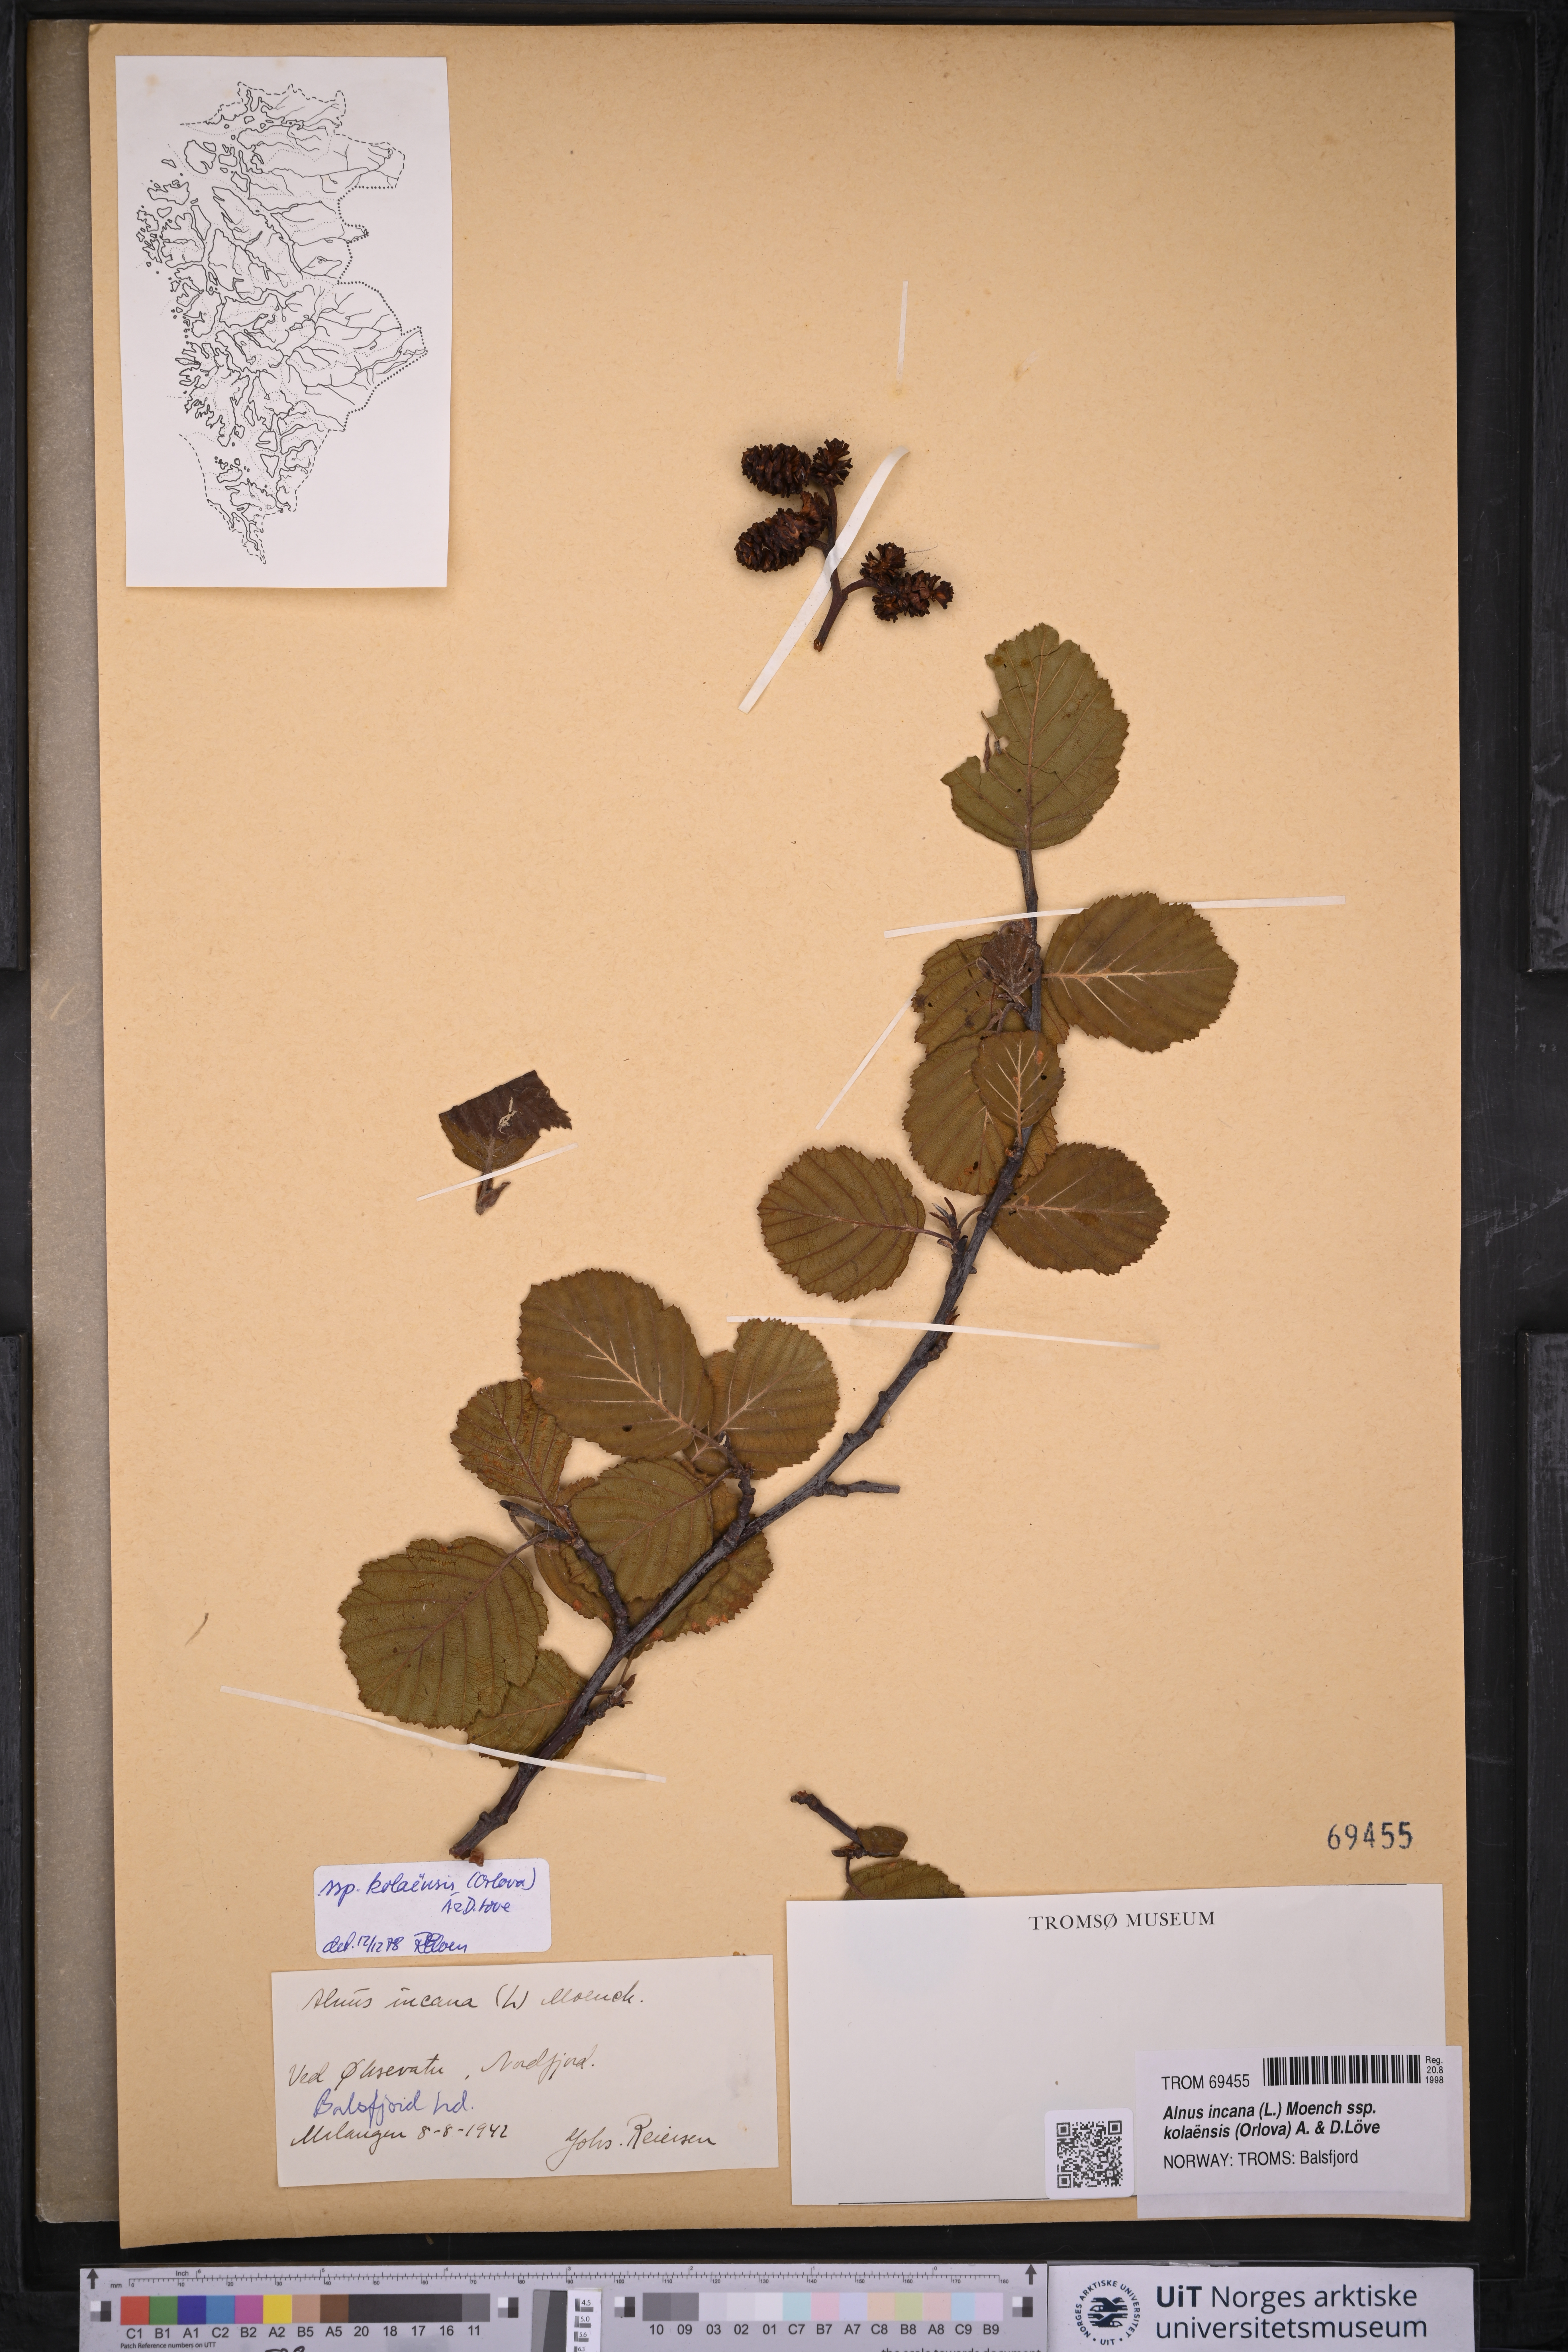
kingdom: Plantae
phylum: Tracheophyta
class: Magnoliopsida
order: Fagales
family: Betulaceae
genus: Alnus
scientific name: Alnus incana
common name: Grey alder
